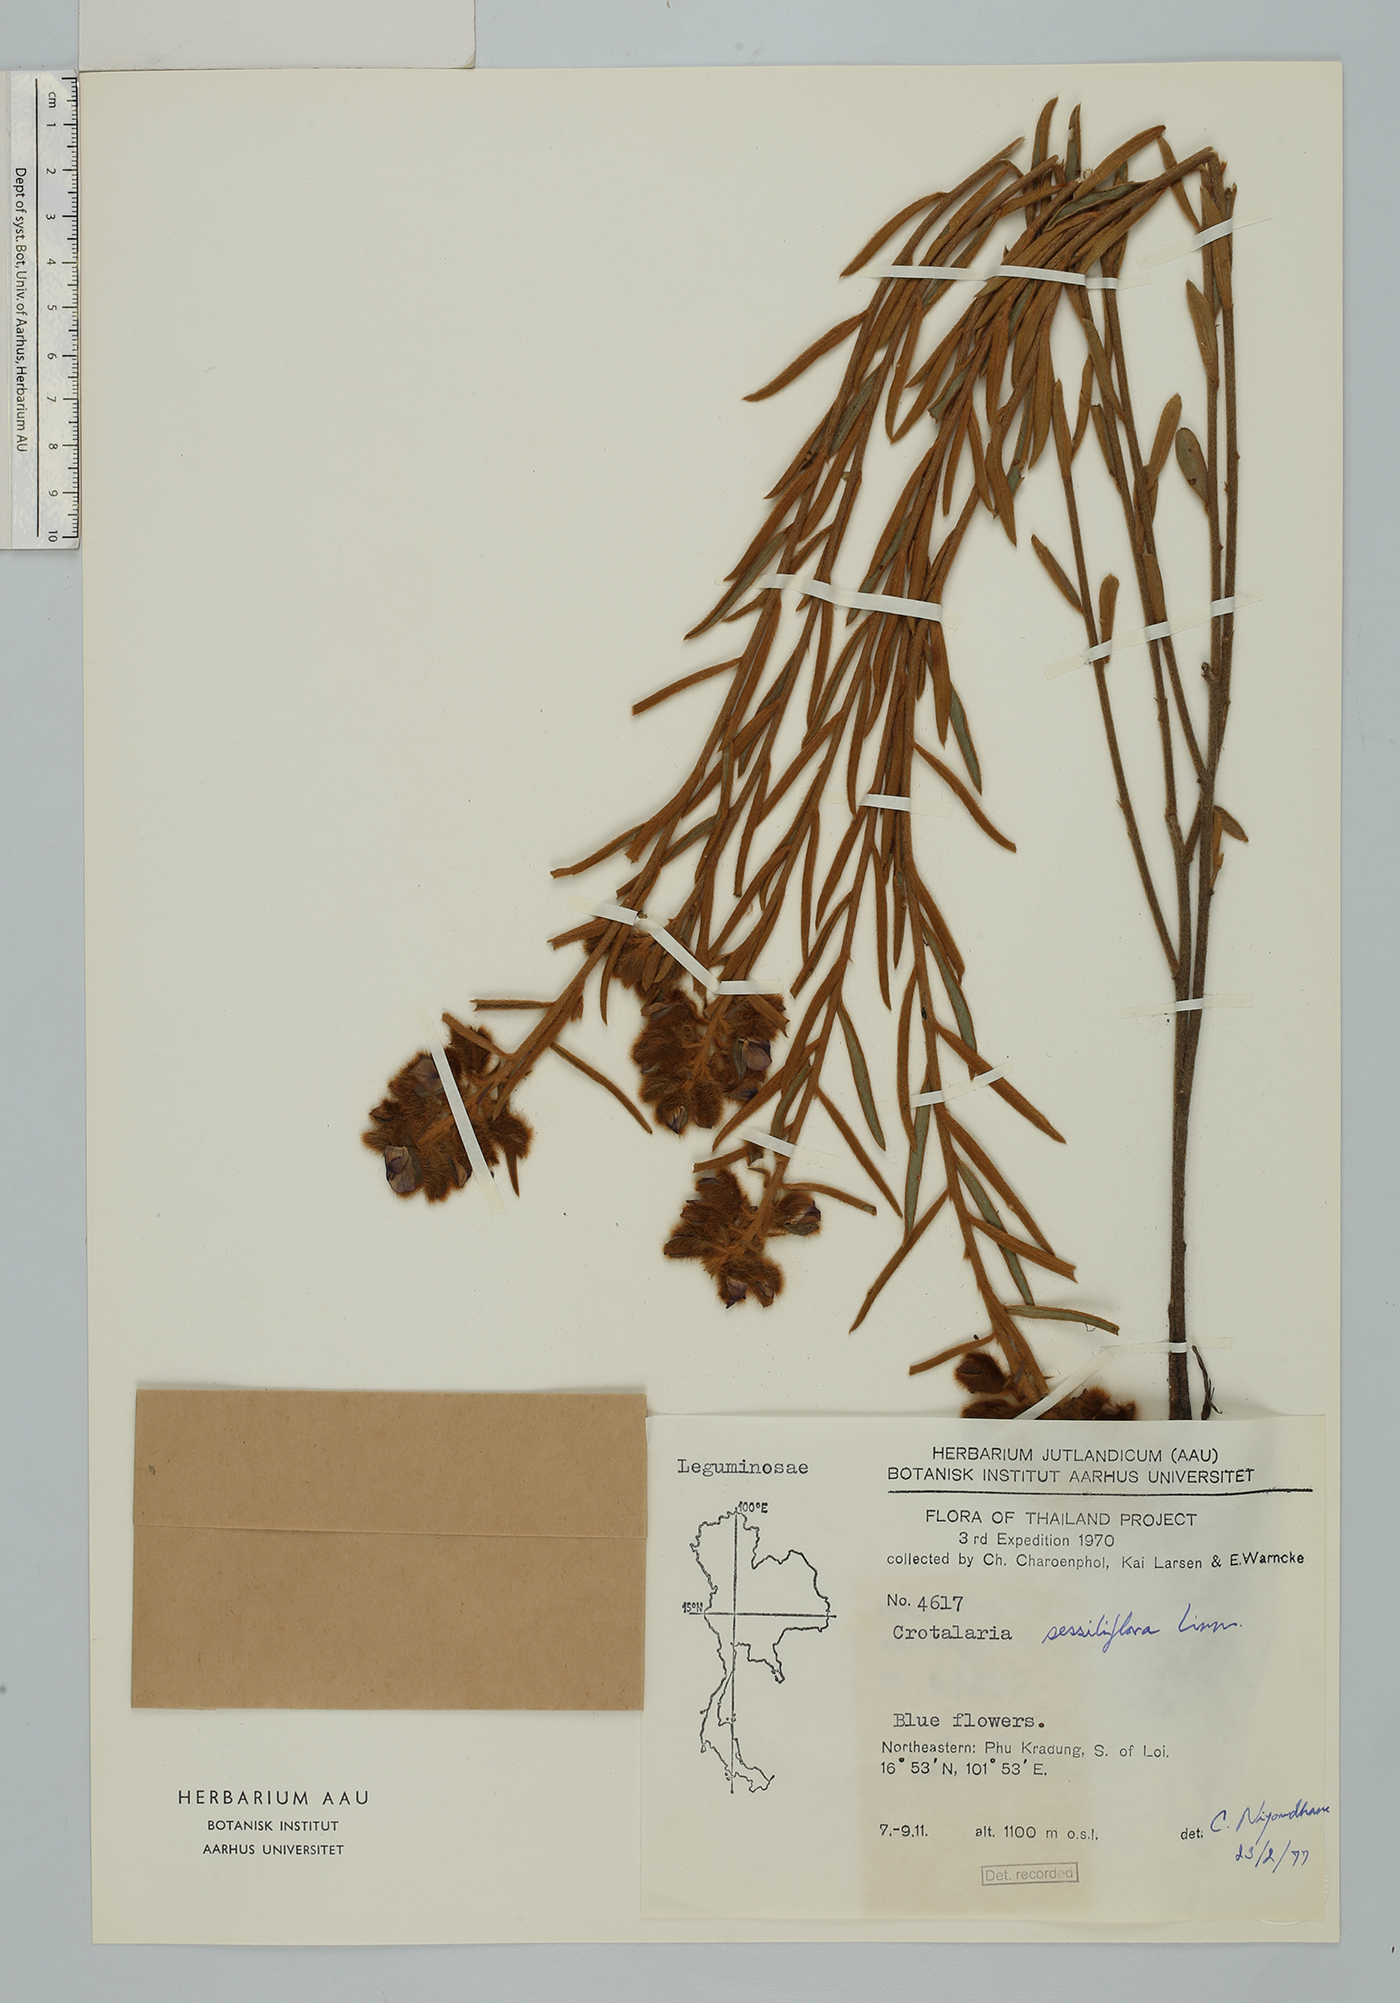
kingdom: Plantae
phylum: Tracheophyta
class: Magnoliopsida
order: Fabales
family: Fabaceae
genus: Crotalaria
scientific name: Crotalaria sessiliflora
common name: Rattlebox
